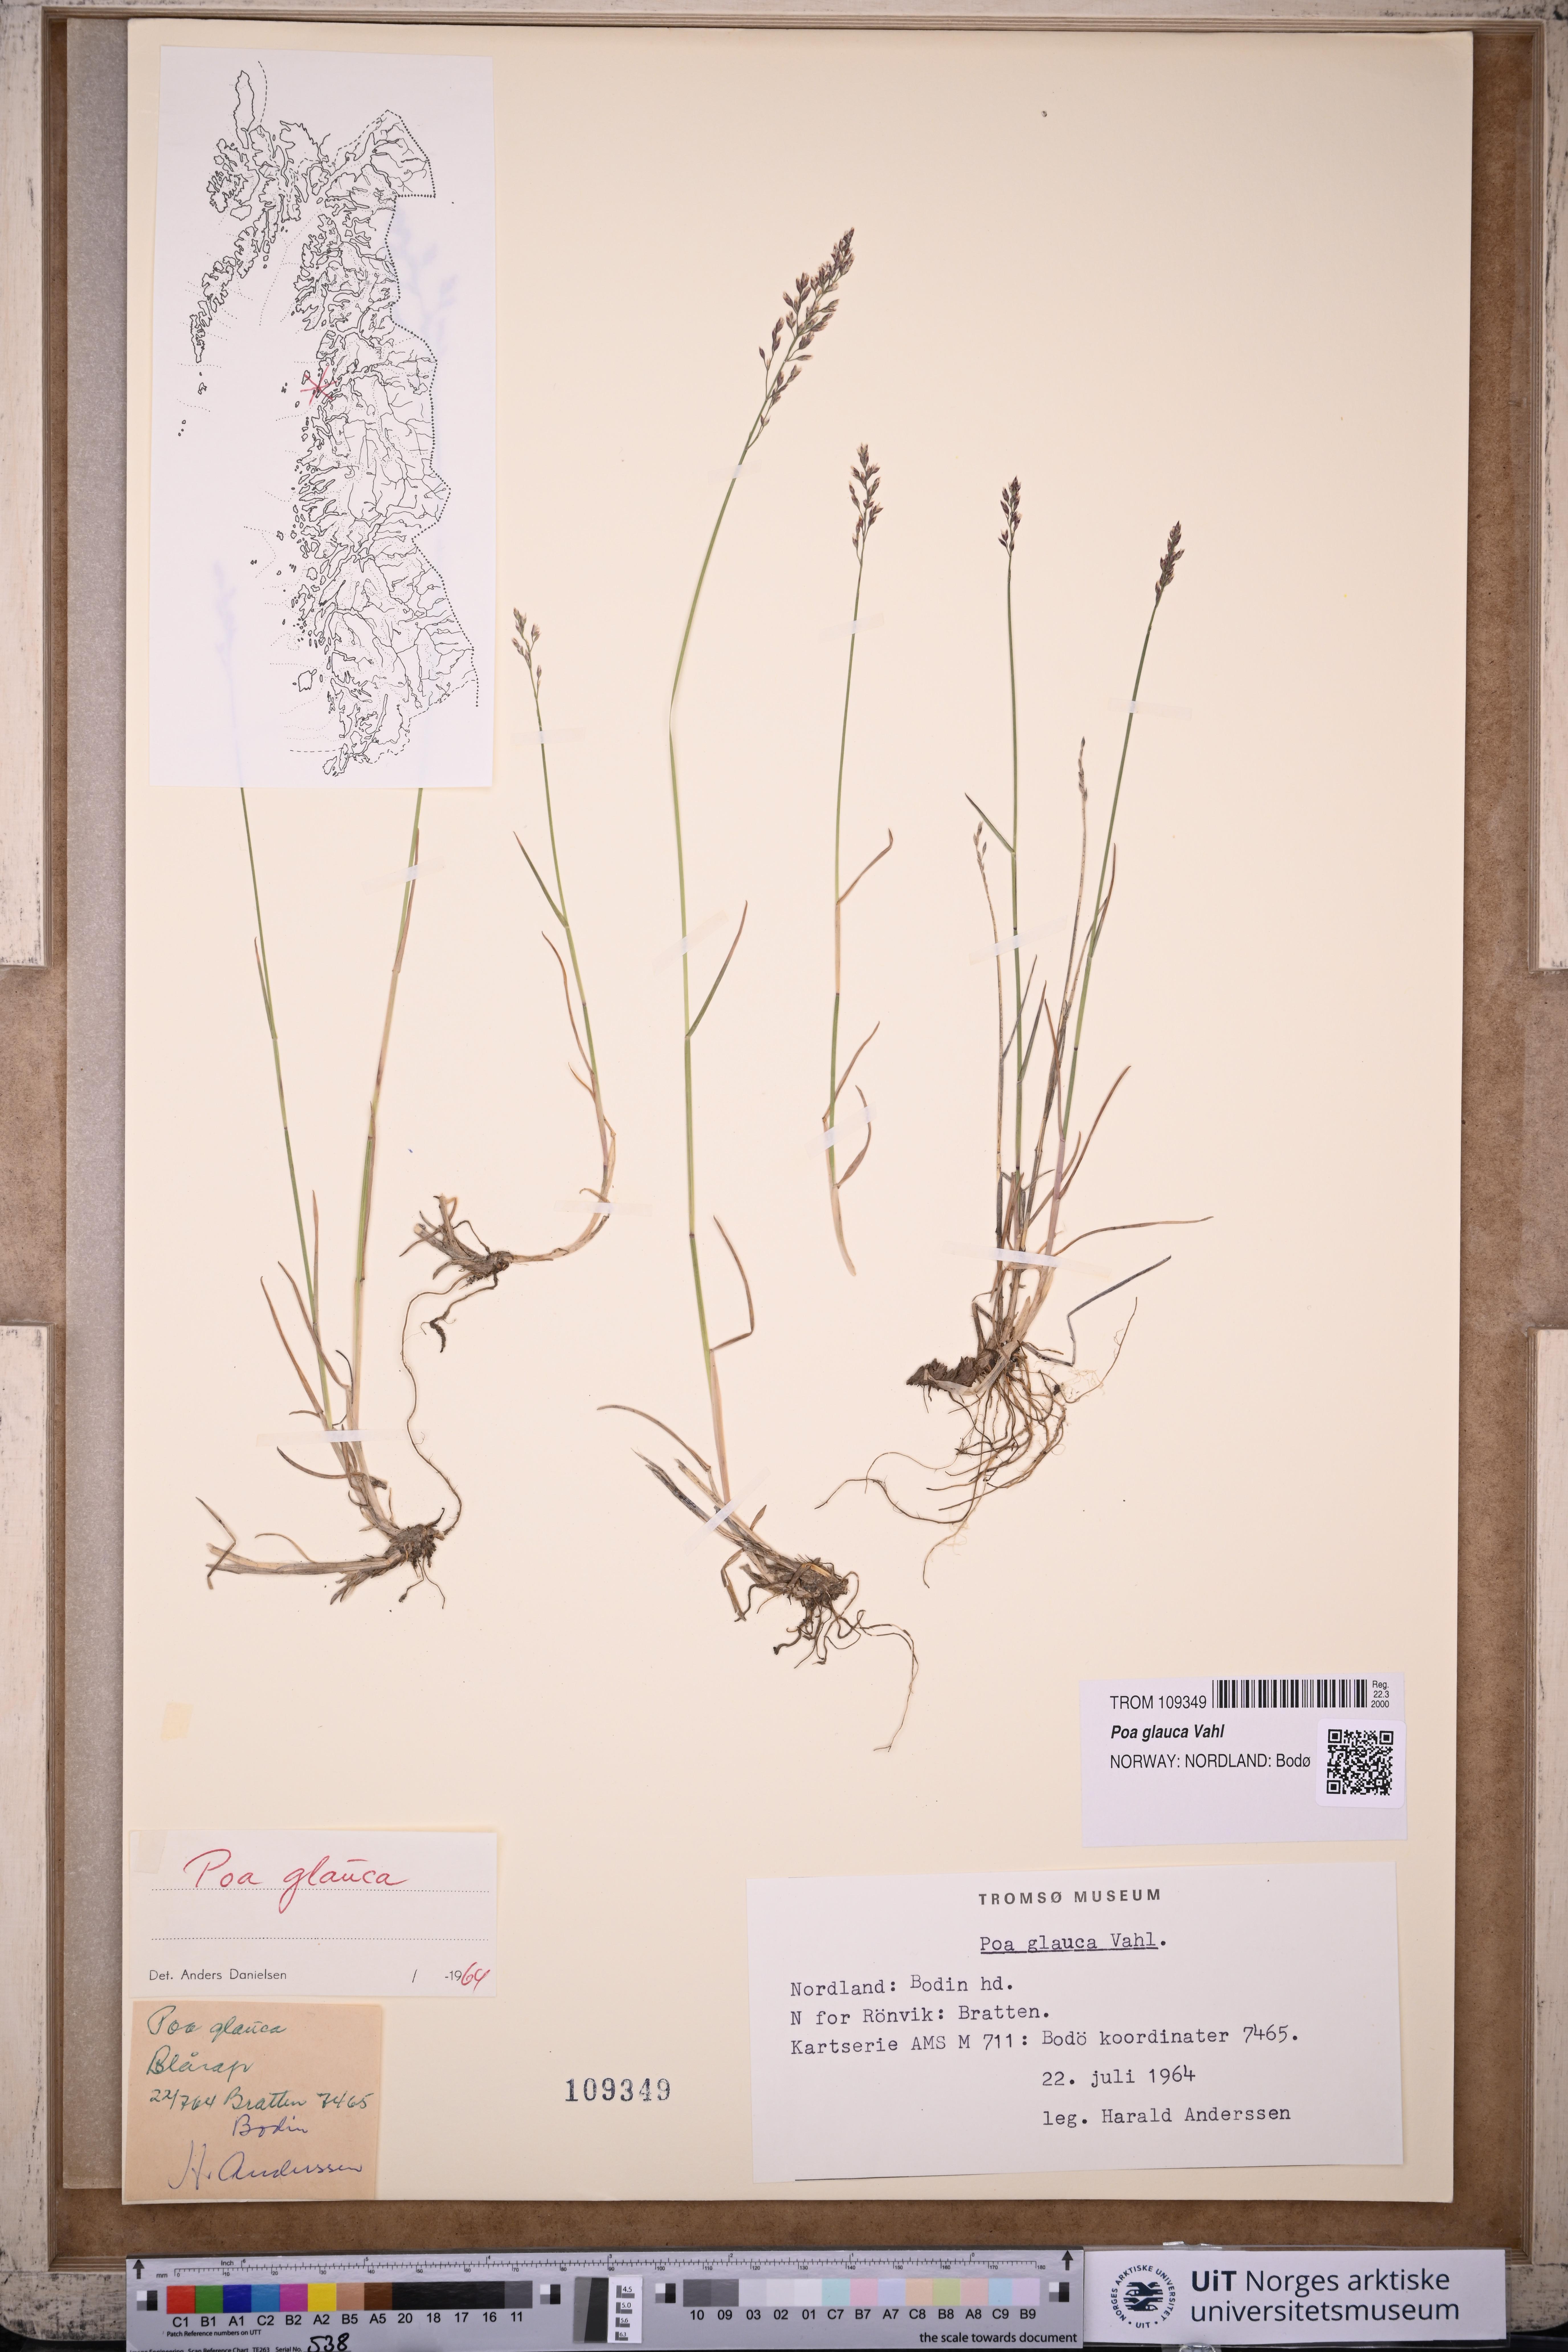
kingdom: Plantae
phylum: Tracheophyta
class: Liliopsida
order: Poales
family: Poaceae
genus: Poa
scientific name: Poa glauca
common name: Glaucous bluegrass
